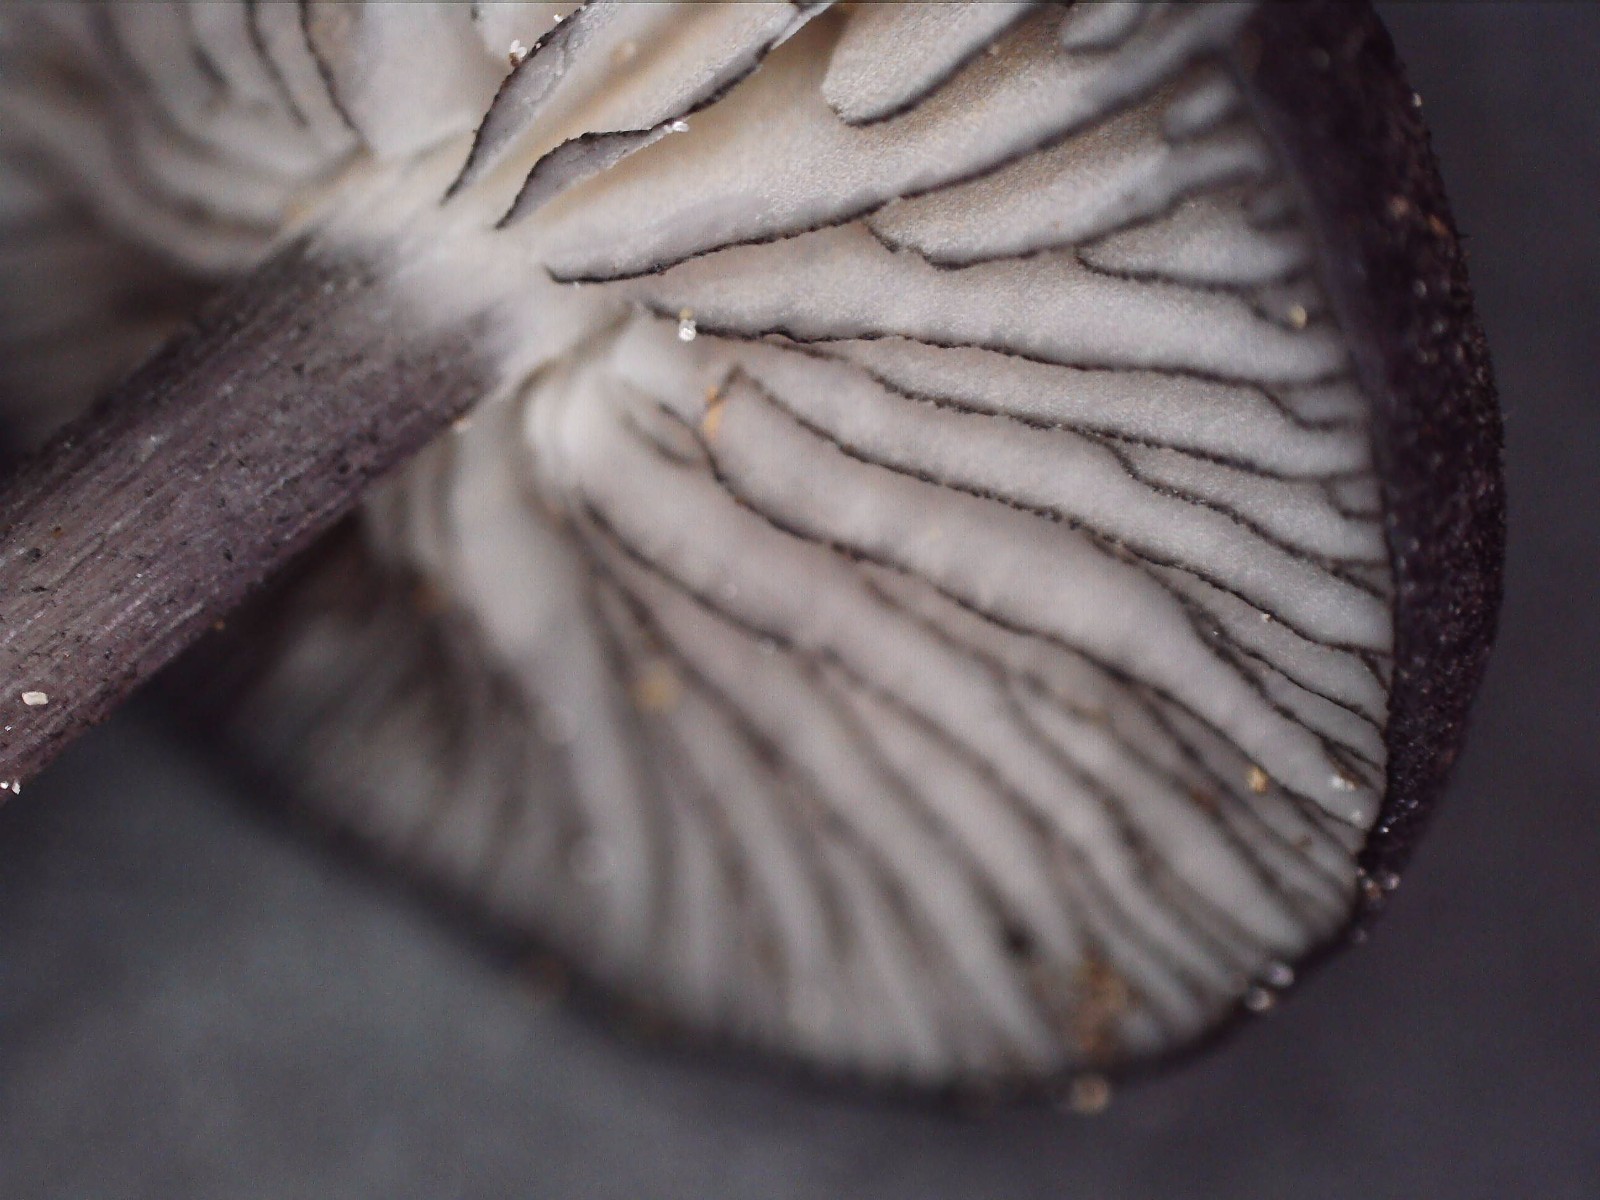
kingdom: Fungi
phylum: Basidiomycota
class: Agaricomycetes
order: Agaricales
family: Entolomataceae
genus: Entoloma
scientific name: Entoloma
